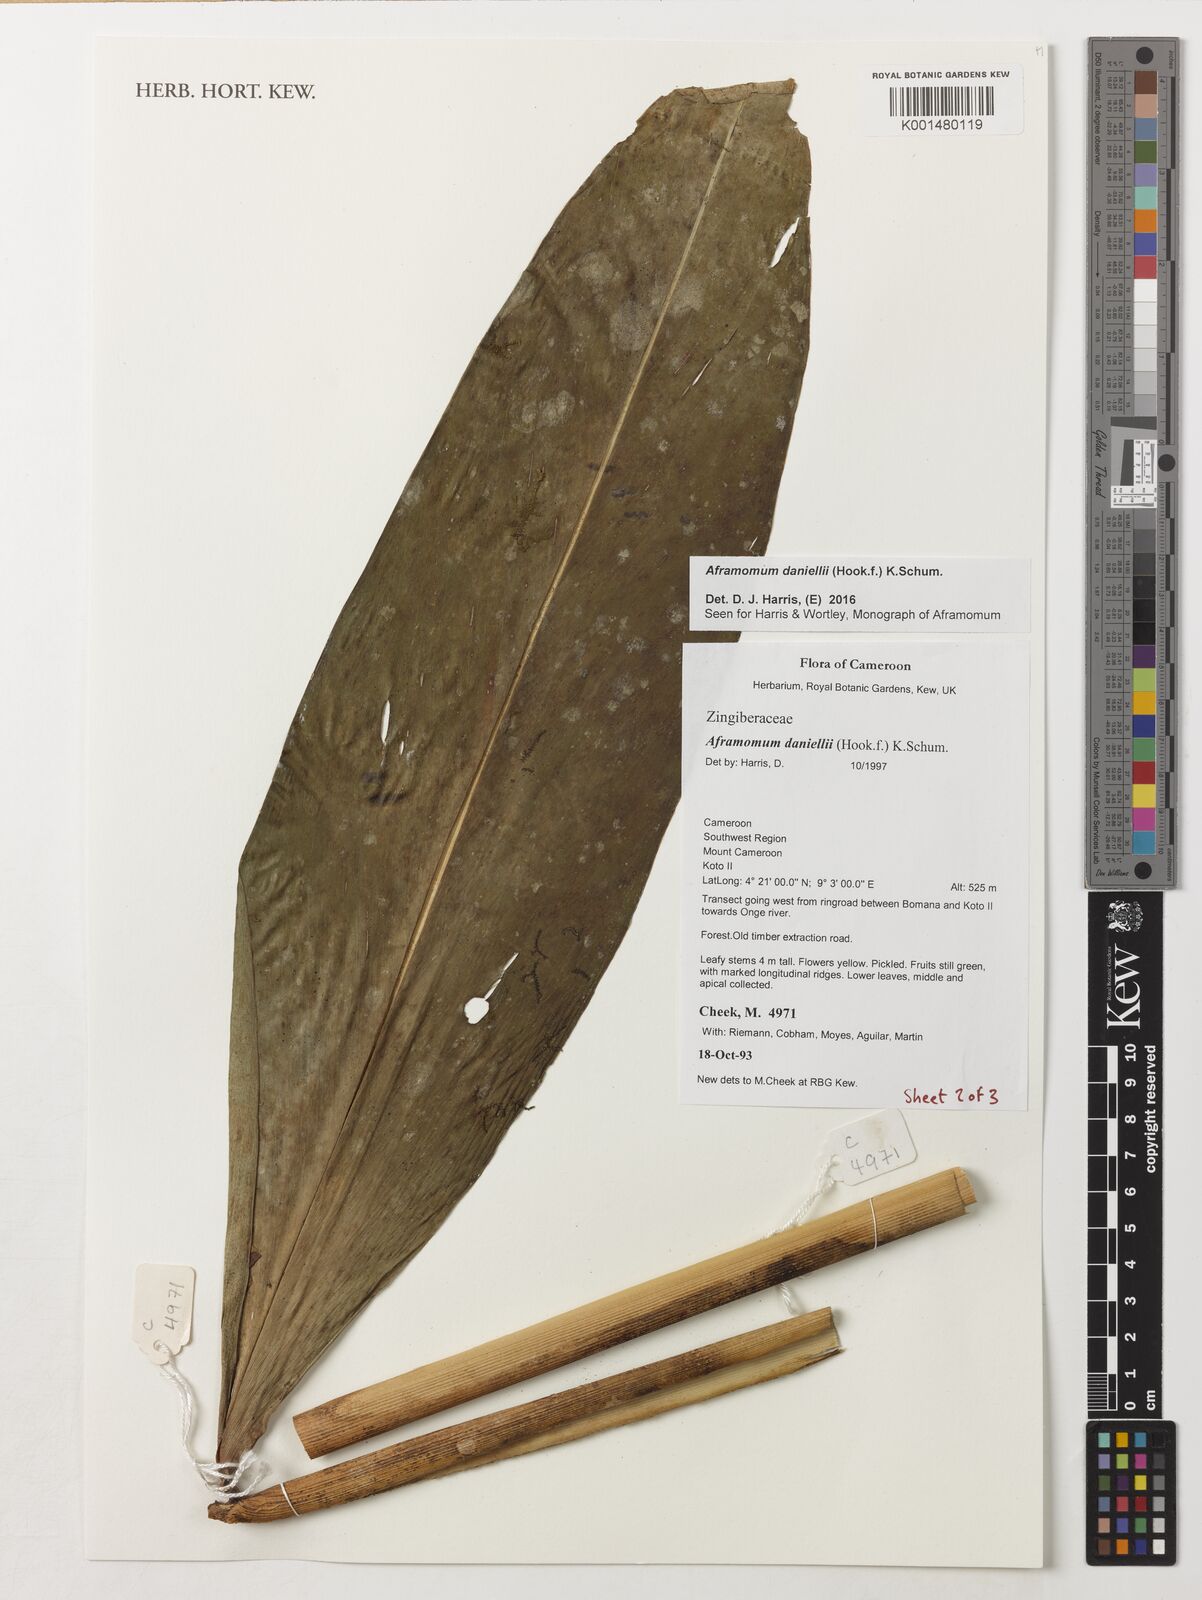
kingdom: Plantae
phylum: Tracheophyta
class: Liliopsida
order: Zingiberales
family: Zingiberaceae
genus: Aframomum
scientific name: Aframomum daniellii
